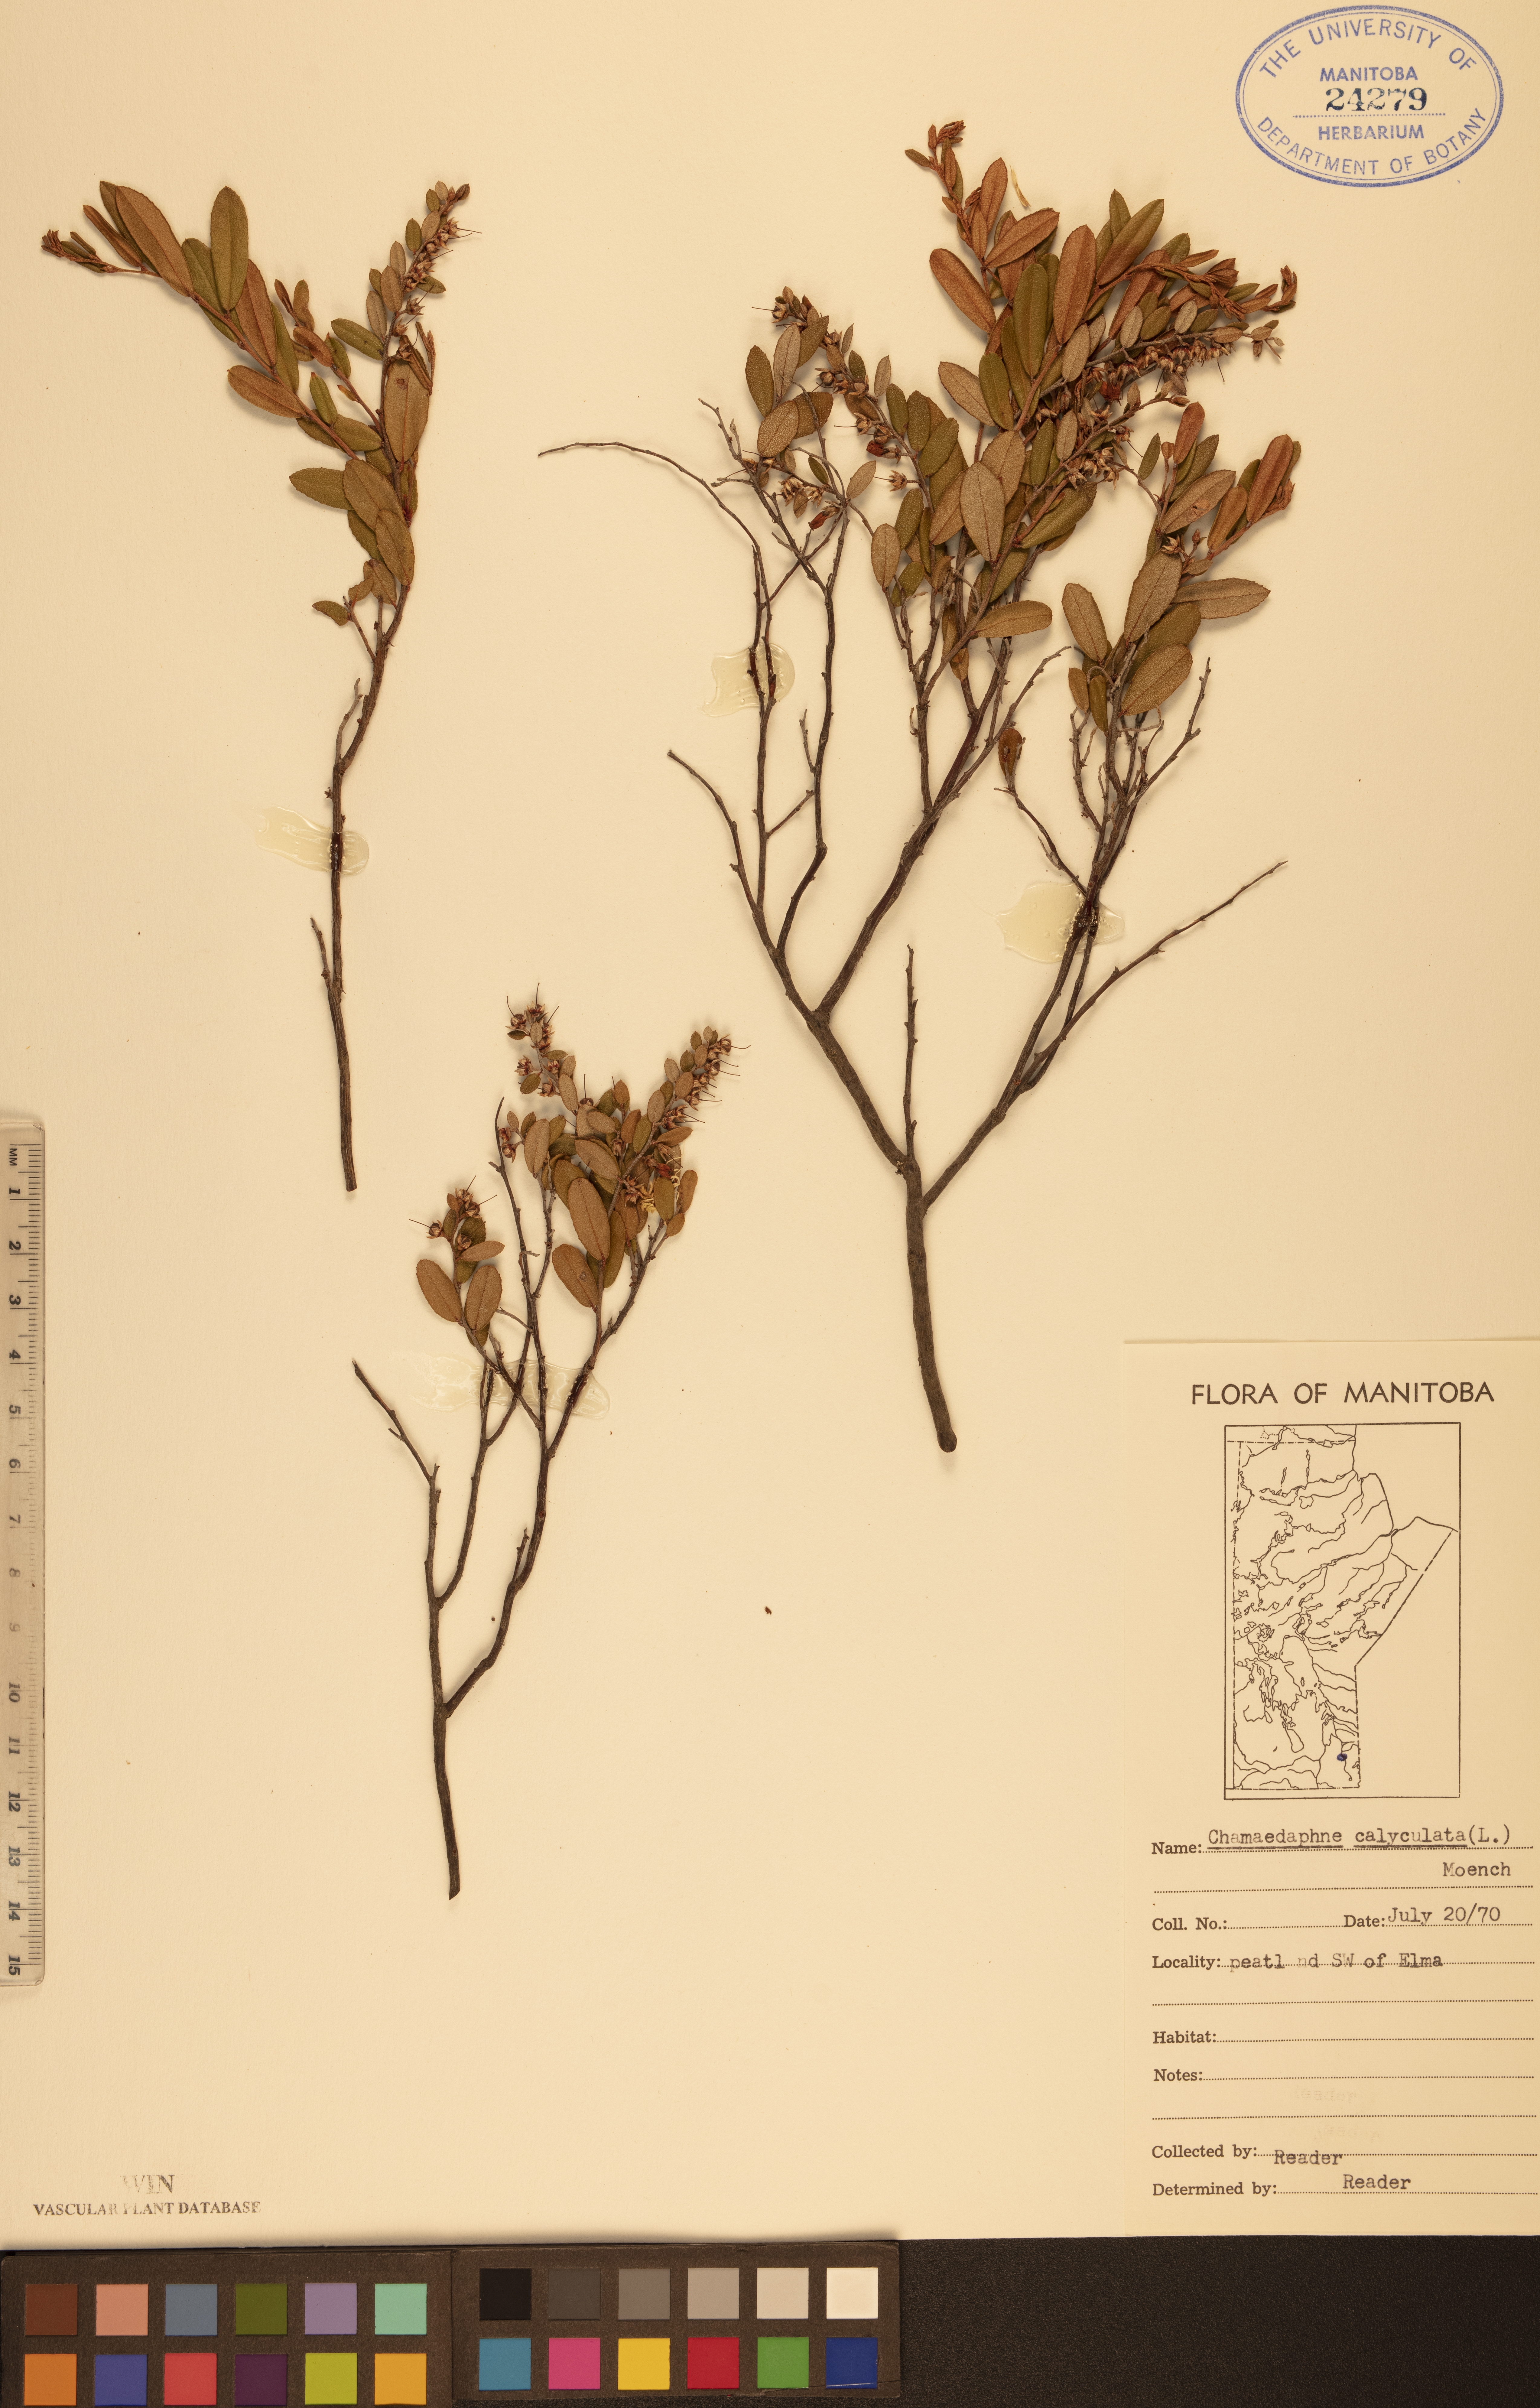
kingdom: Plantae
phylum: Tracheophyta
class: Magnoliopsida
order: Ericales
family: Ericaceae
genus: Chamaedaphne
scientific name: Chamaedaphne calyculata
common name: Leatherleaf
